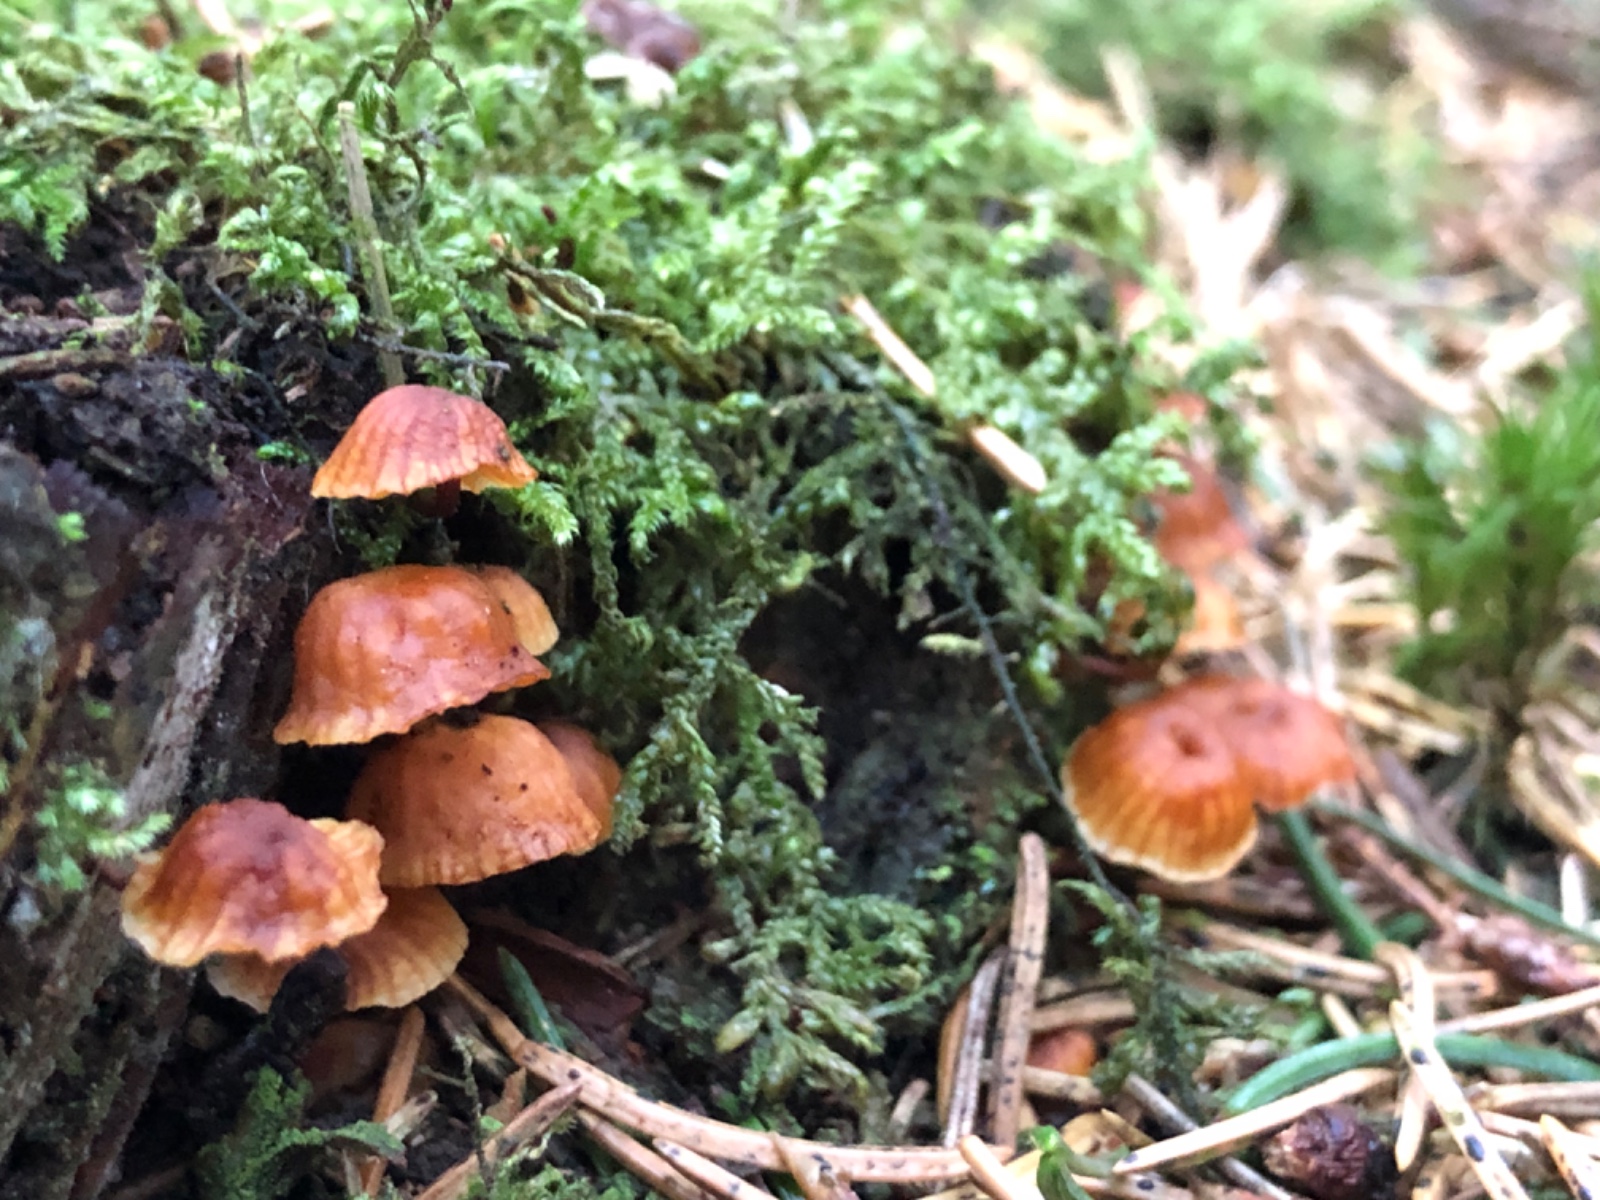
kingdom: Fungi
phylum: Basidiomycota
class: Agaricomycetes
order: Agaricales
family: Mycenaceae
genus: Xeromphalina
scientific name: Xeromphalina campanella
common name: klokke-tørhat
